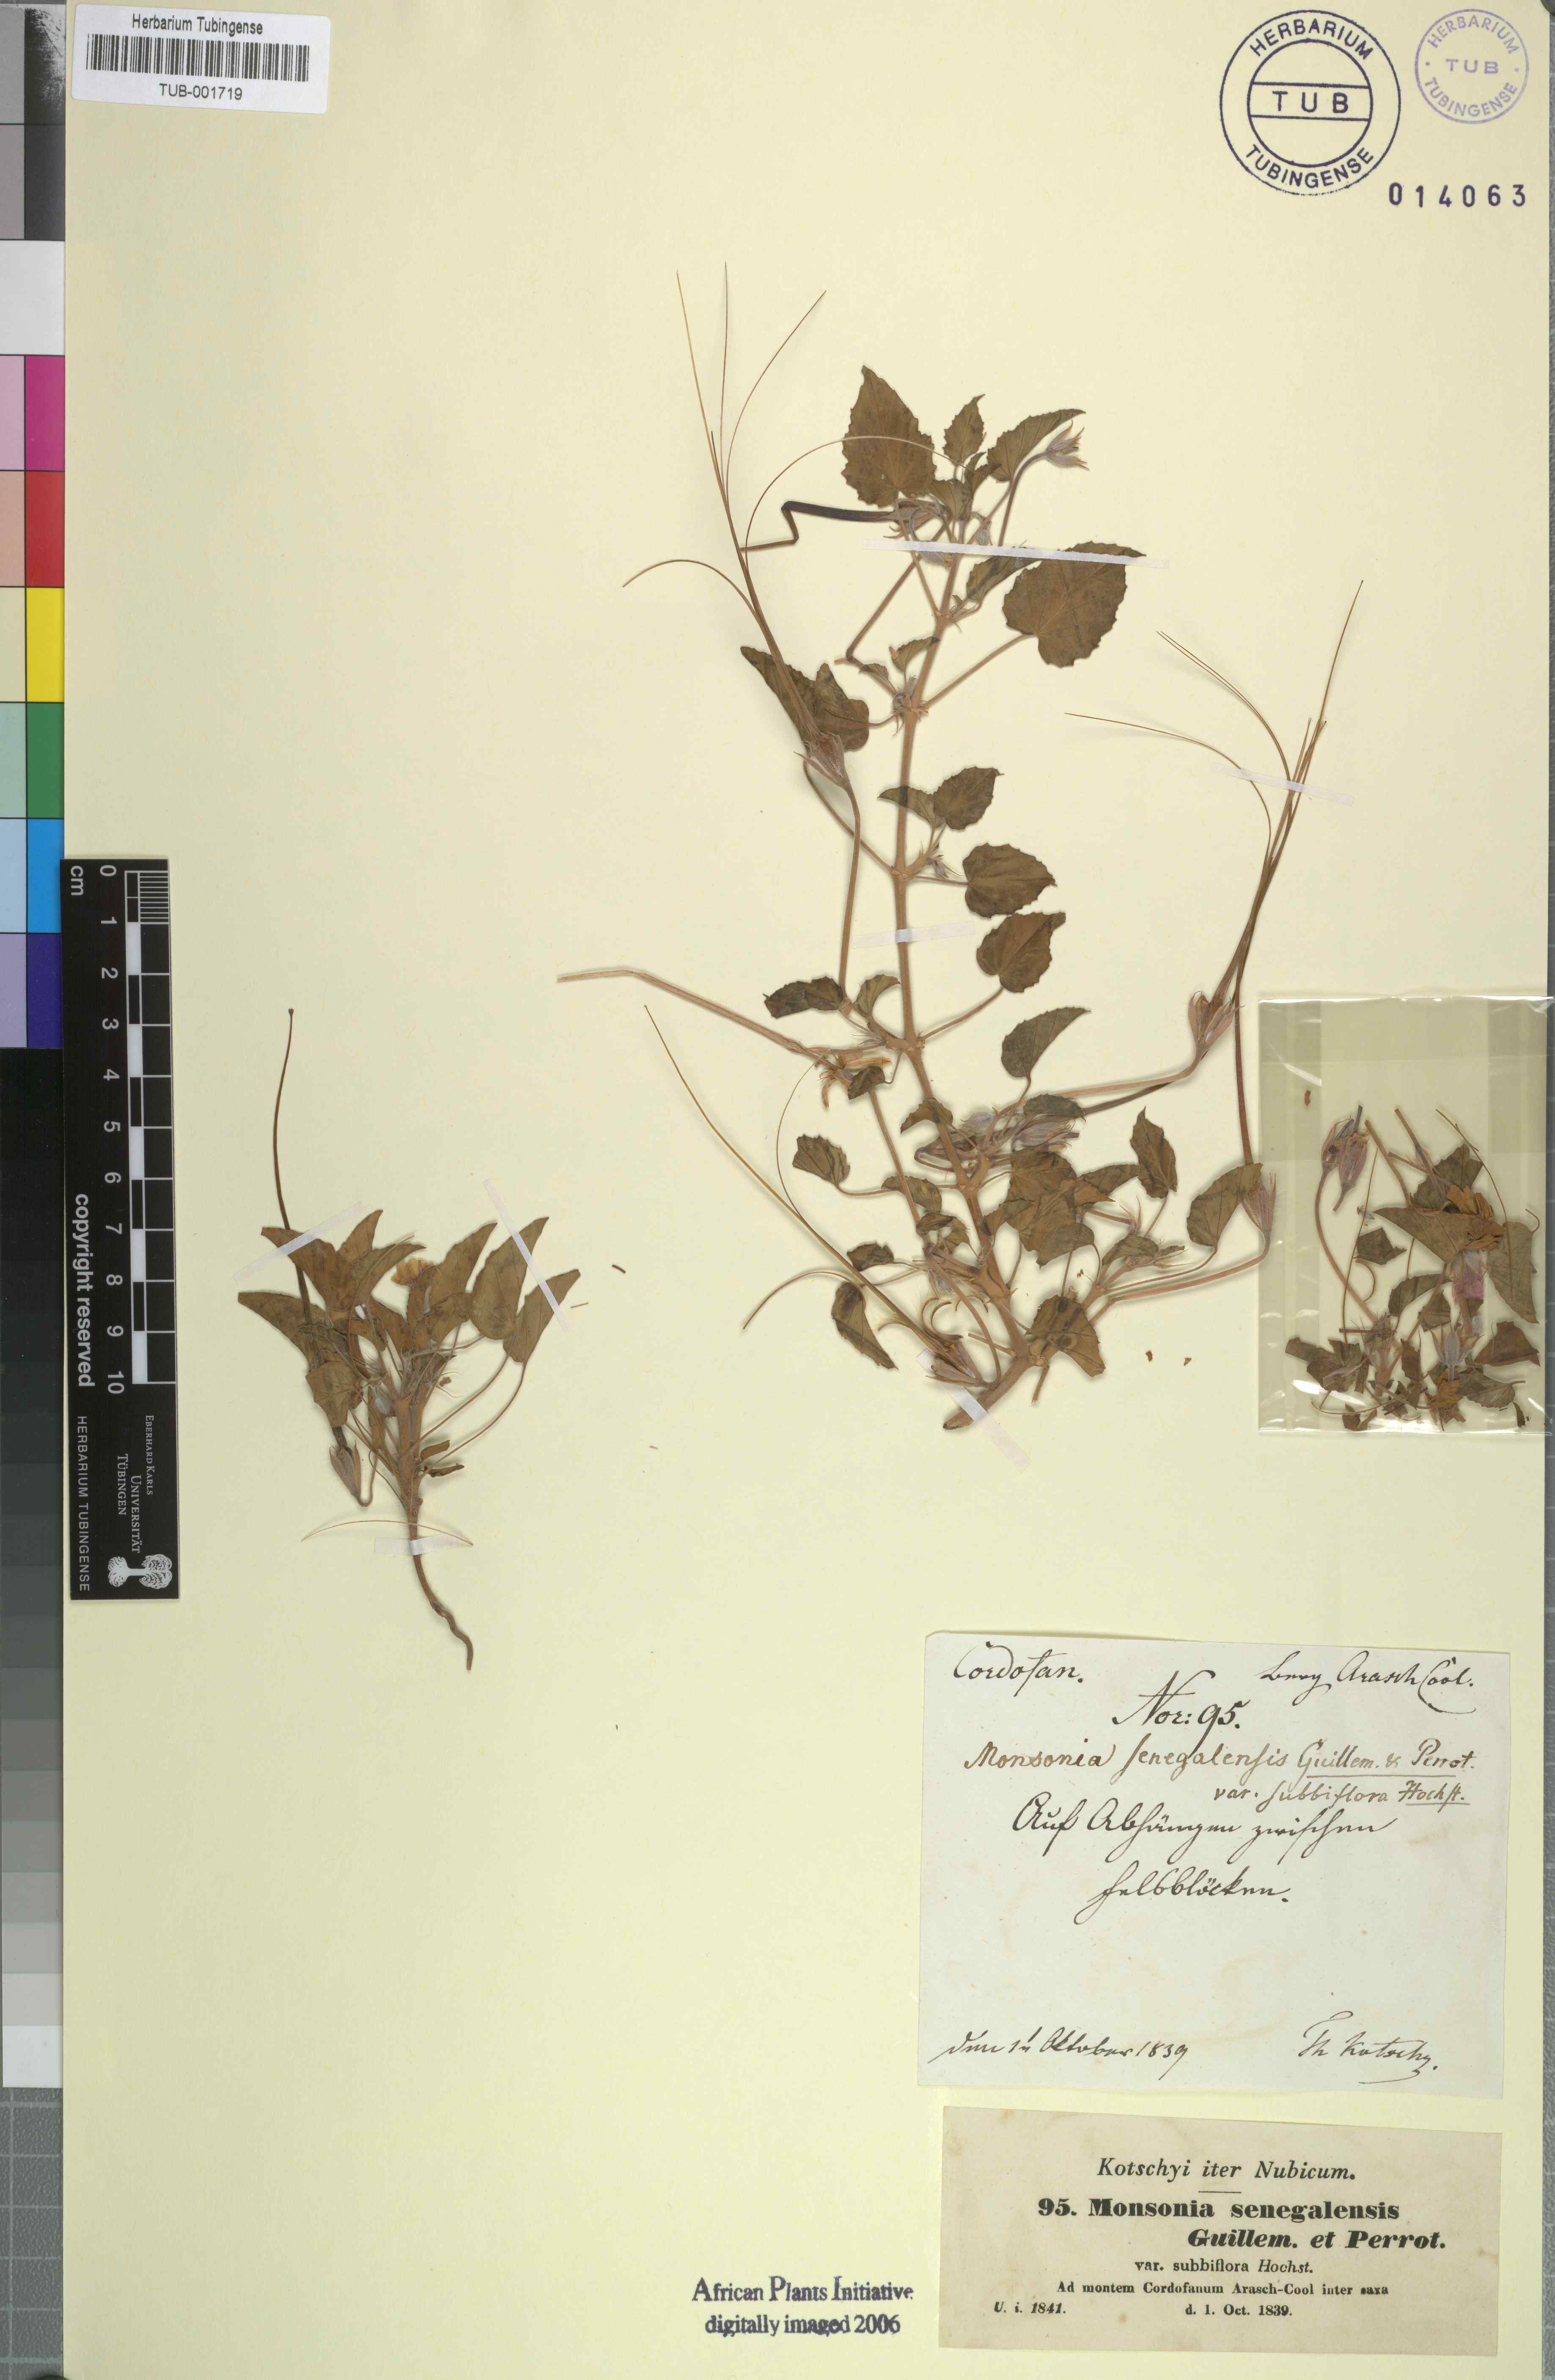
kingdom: Plantae
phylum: Tracheophyta
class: Magnoliopsida
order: Geraniales
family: Geraniaceae
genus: Monsonia
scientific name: Monsonia senegalensis
